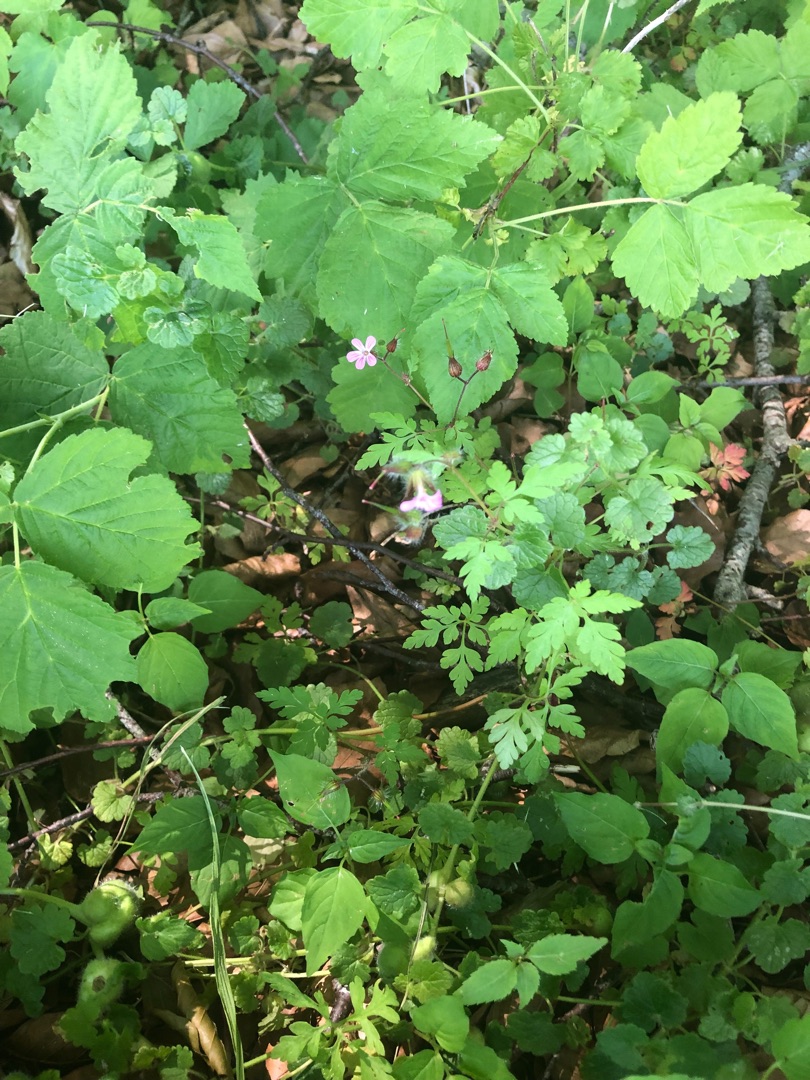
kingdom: Plantae
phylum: Tracheophyta
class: Magnoliopsida
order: Geraniales
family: Geraniaceae
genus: Geranium
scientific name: Geranium robertianum
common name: Stinkende storkenæb
